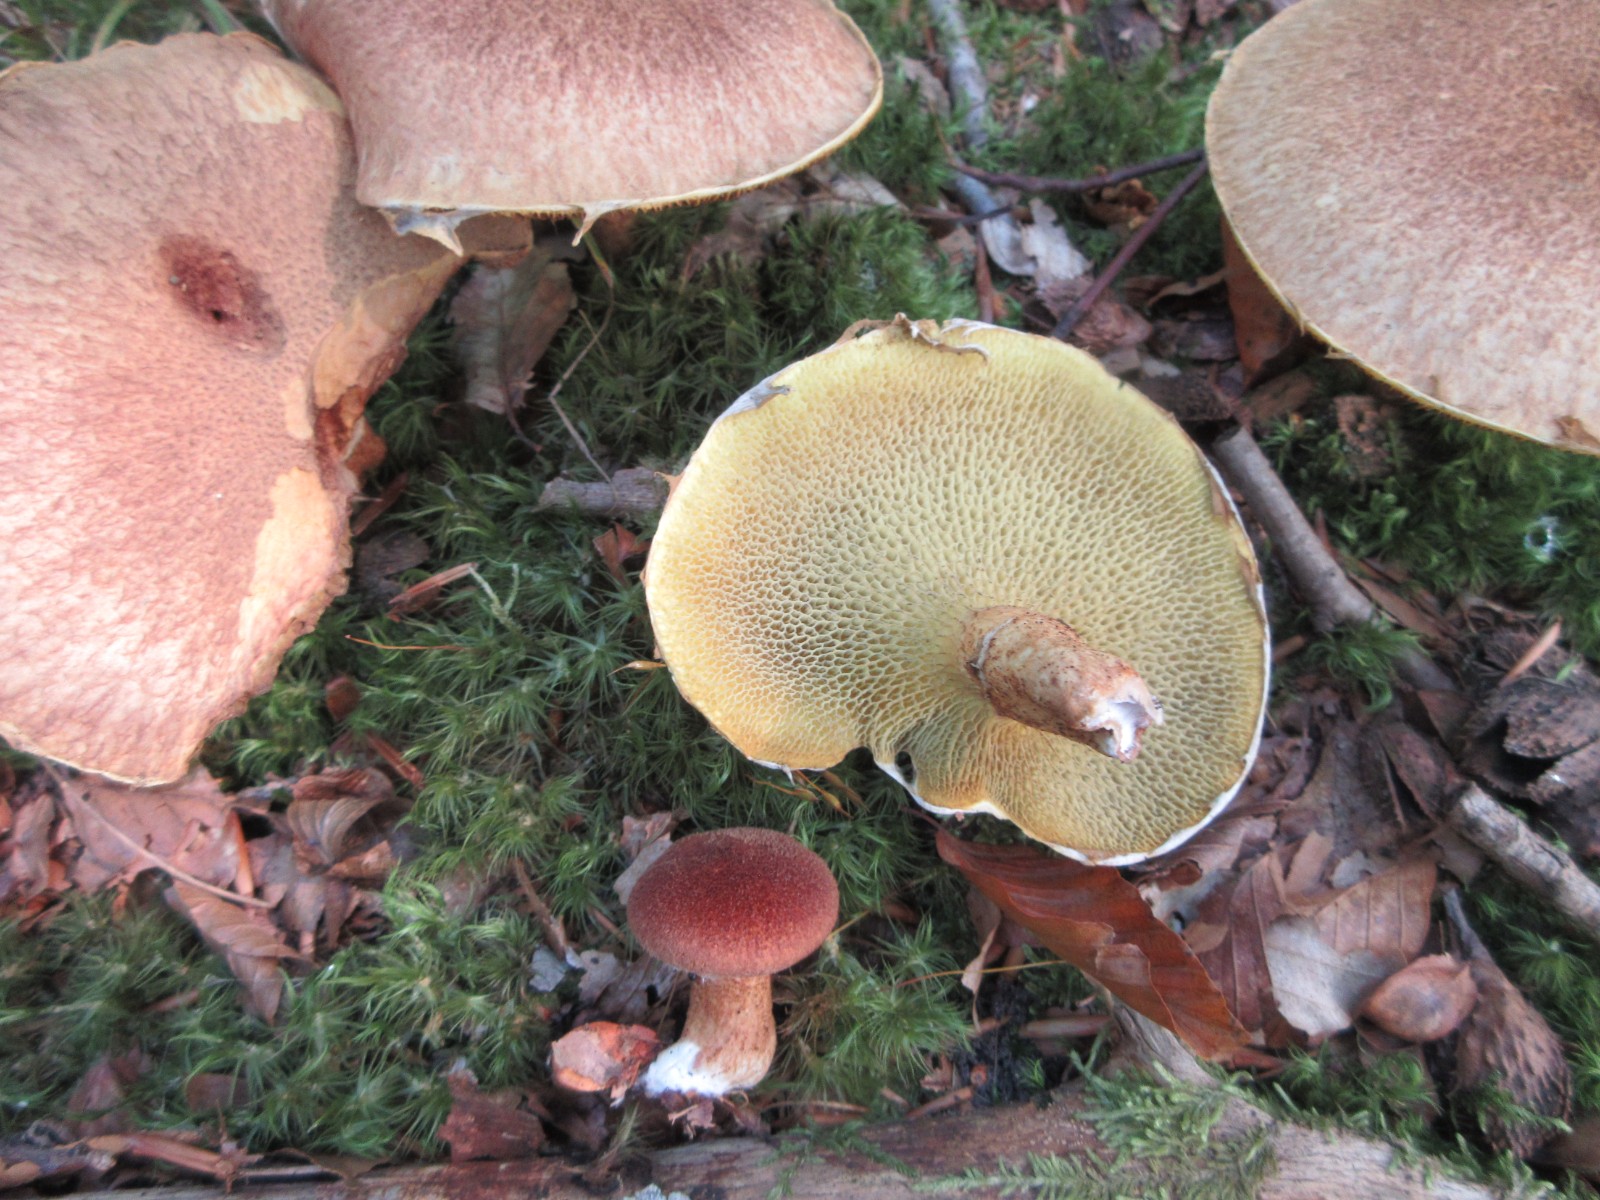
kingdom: Fungi
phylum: Basidiomycota
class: Agaricomycetes
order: Boletales
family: Suillaceae
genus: Suillus
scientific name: Suillus cavipes
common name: hulstokket slimrørhat
